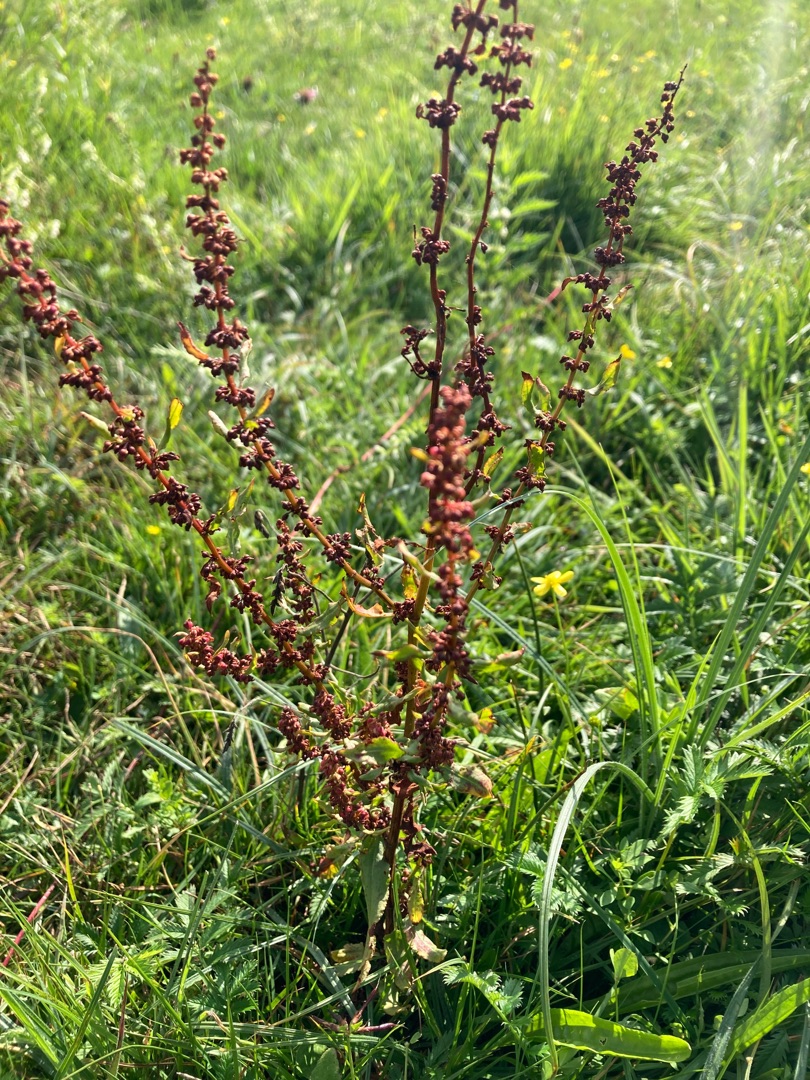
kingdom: Plantae
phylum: Tracheophyta
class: Magnoliopsida
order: Caryophyllales
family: Polygonaceae
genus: Rumex
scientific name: Rumex conglomeratus
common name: Nøgle-skræppe
